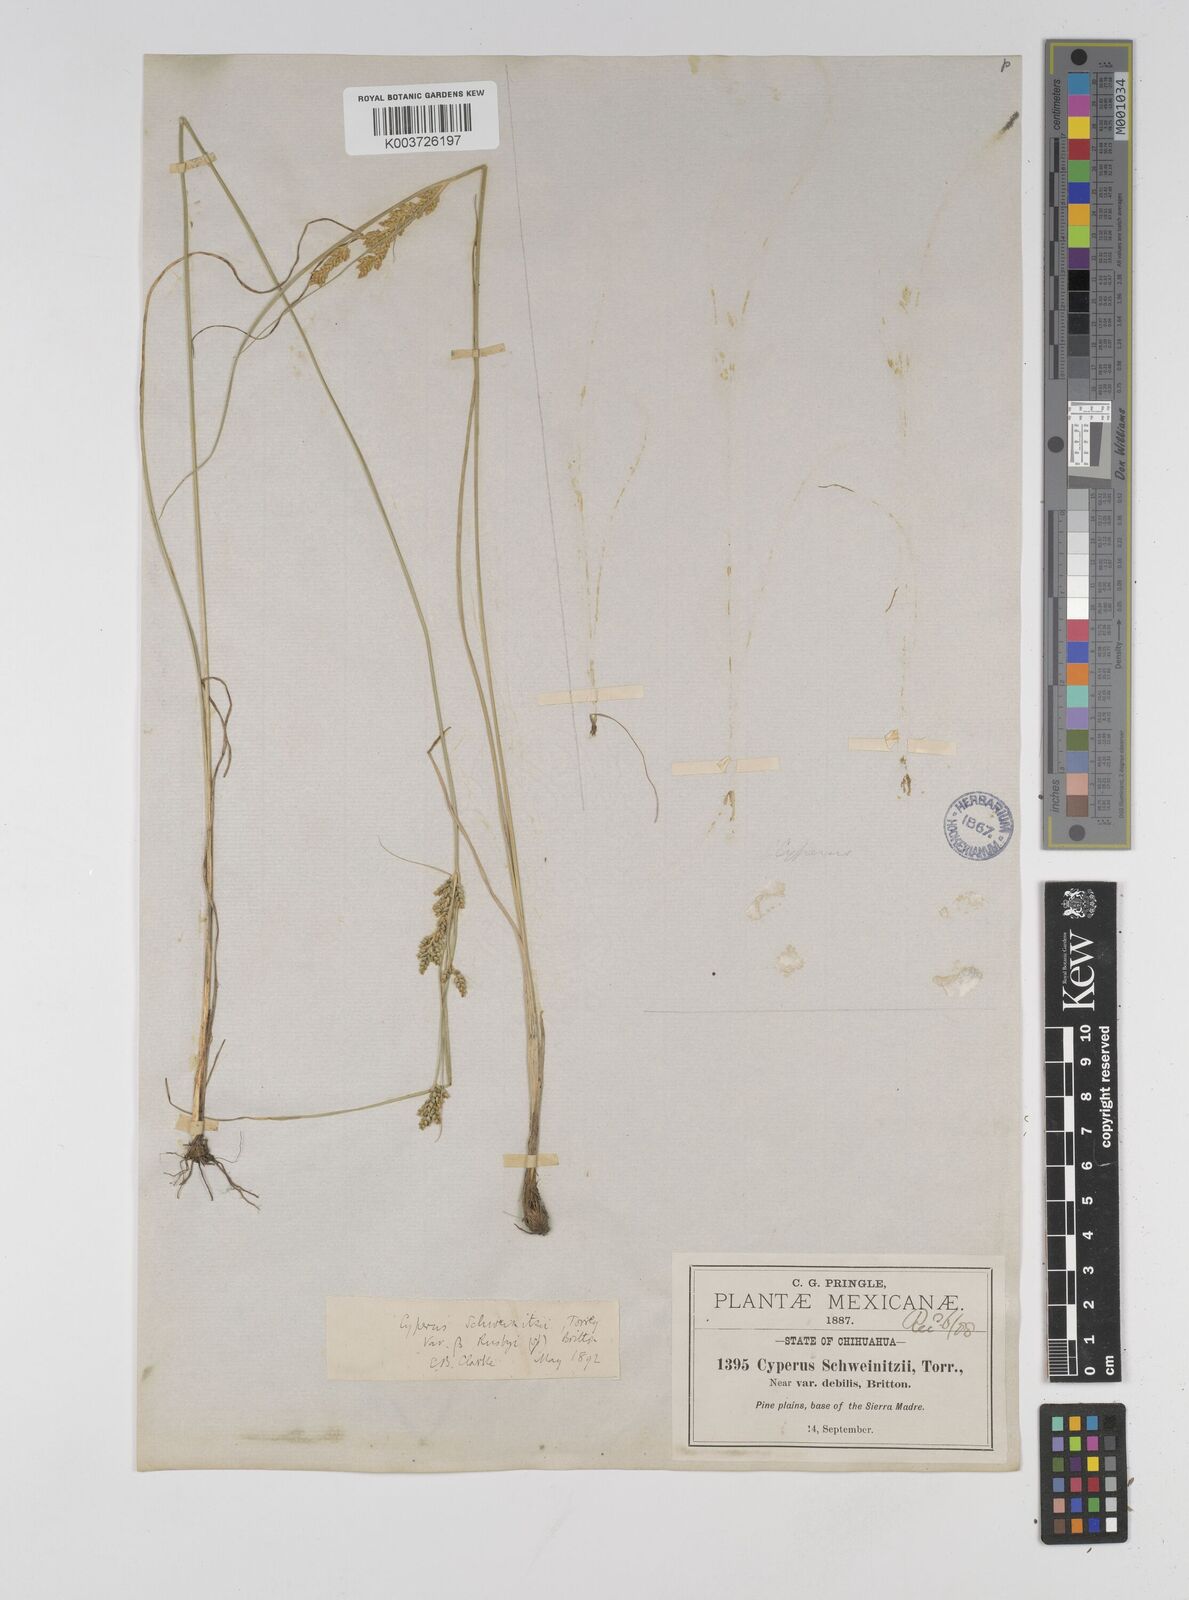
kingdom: Plantae
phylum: Tracheophyta
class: Liliopsida
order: Poales
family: Cyperaceae
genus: Cyperus
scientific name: Cyperus schweinfurthii
